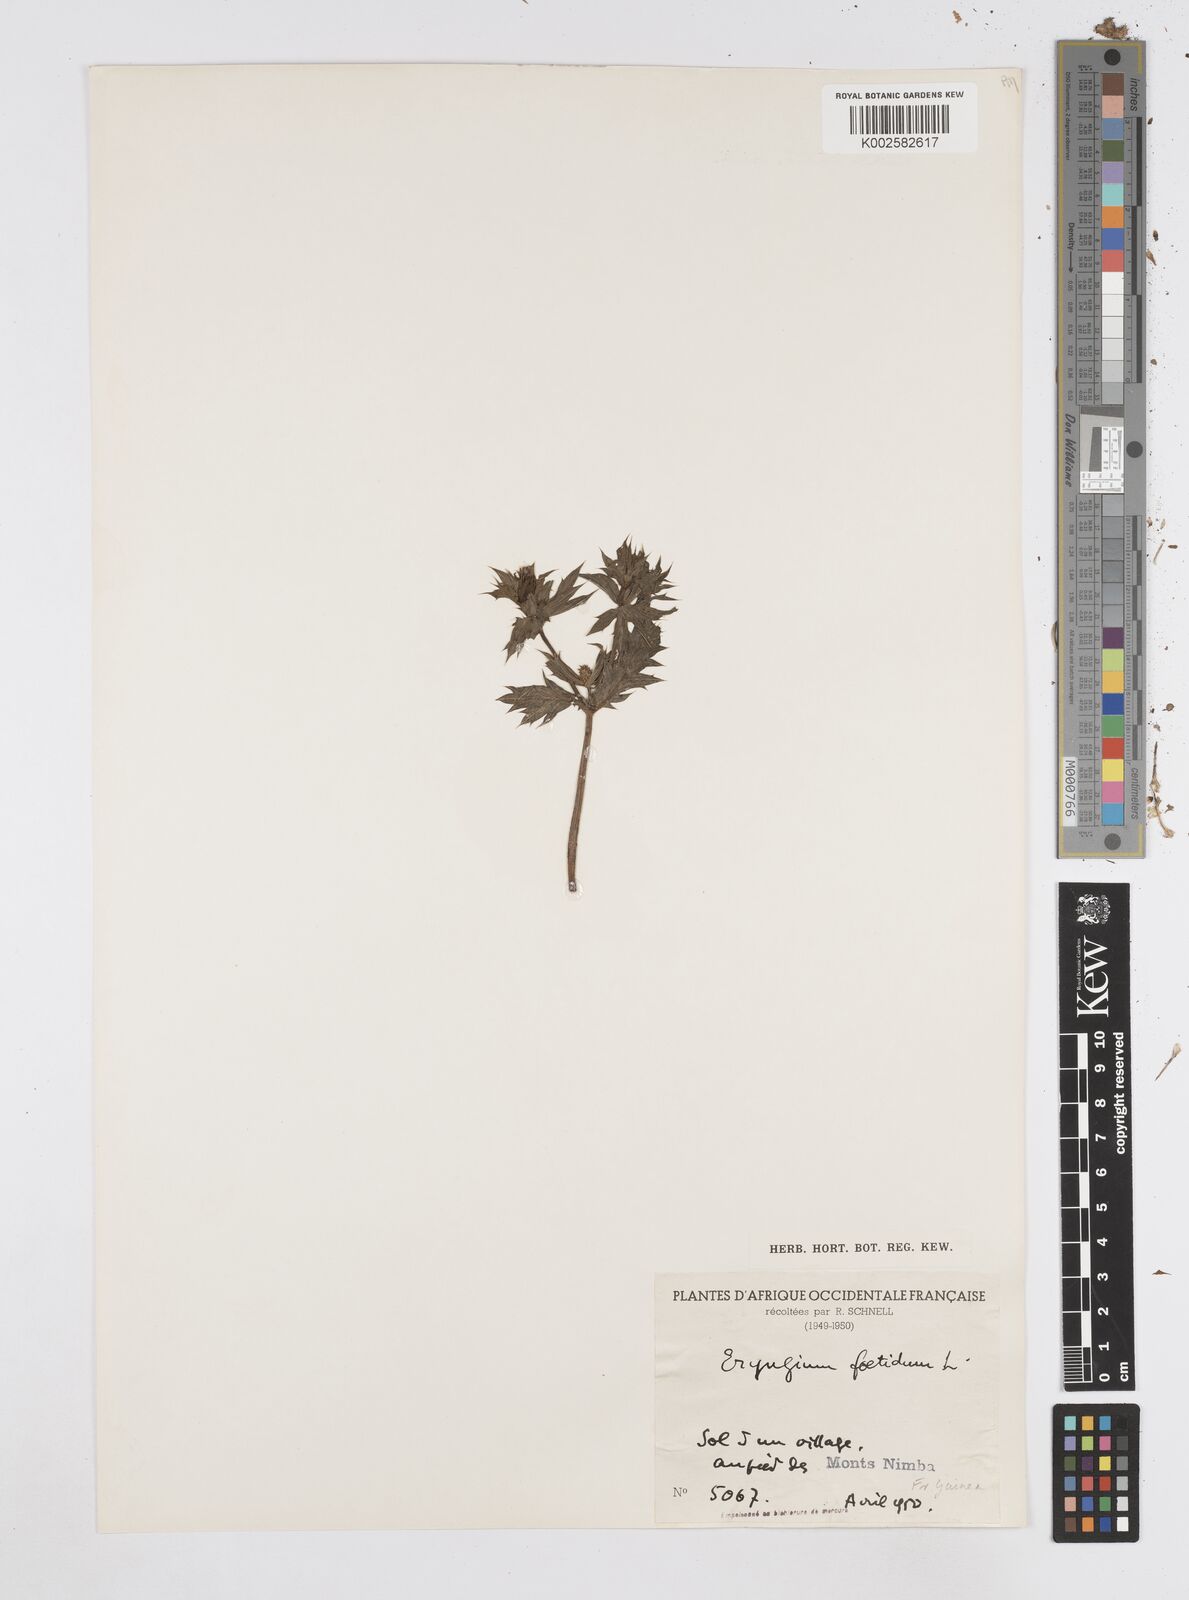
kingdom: Plantae
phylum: Tracheophyta
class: Magnoliopsida
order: Apiales
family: Apiaceae
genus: Eryngium
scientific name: Eryngium foetidum
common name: Fitweed
